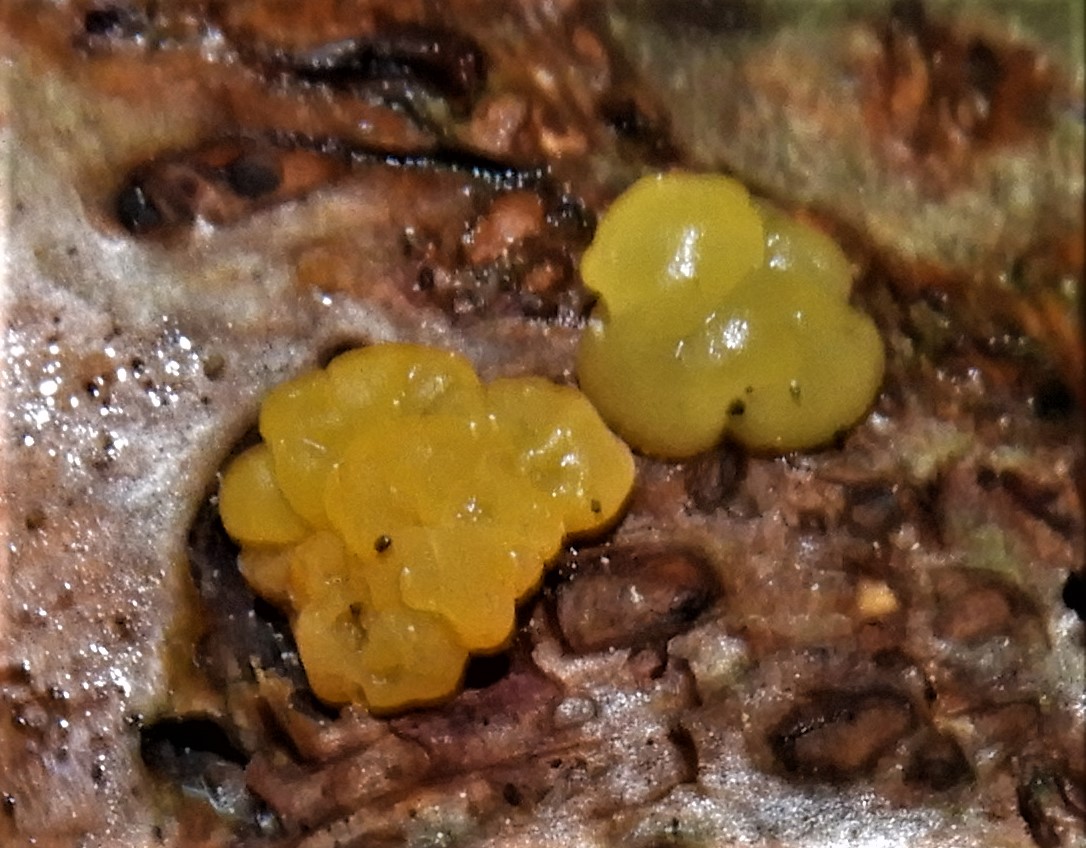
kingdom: Fungi
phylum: Basidiomycota
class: Dacrymycetes
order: Dacrymycetales
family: Dacrymycetaceae
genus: Dacrymyces
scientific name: Dacrymyces lacrymalis
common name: rynket tåresvamp
